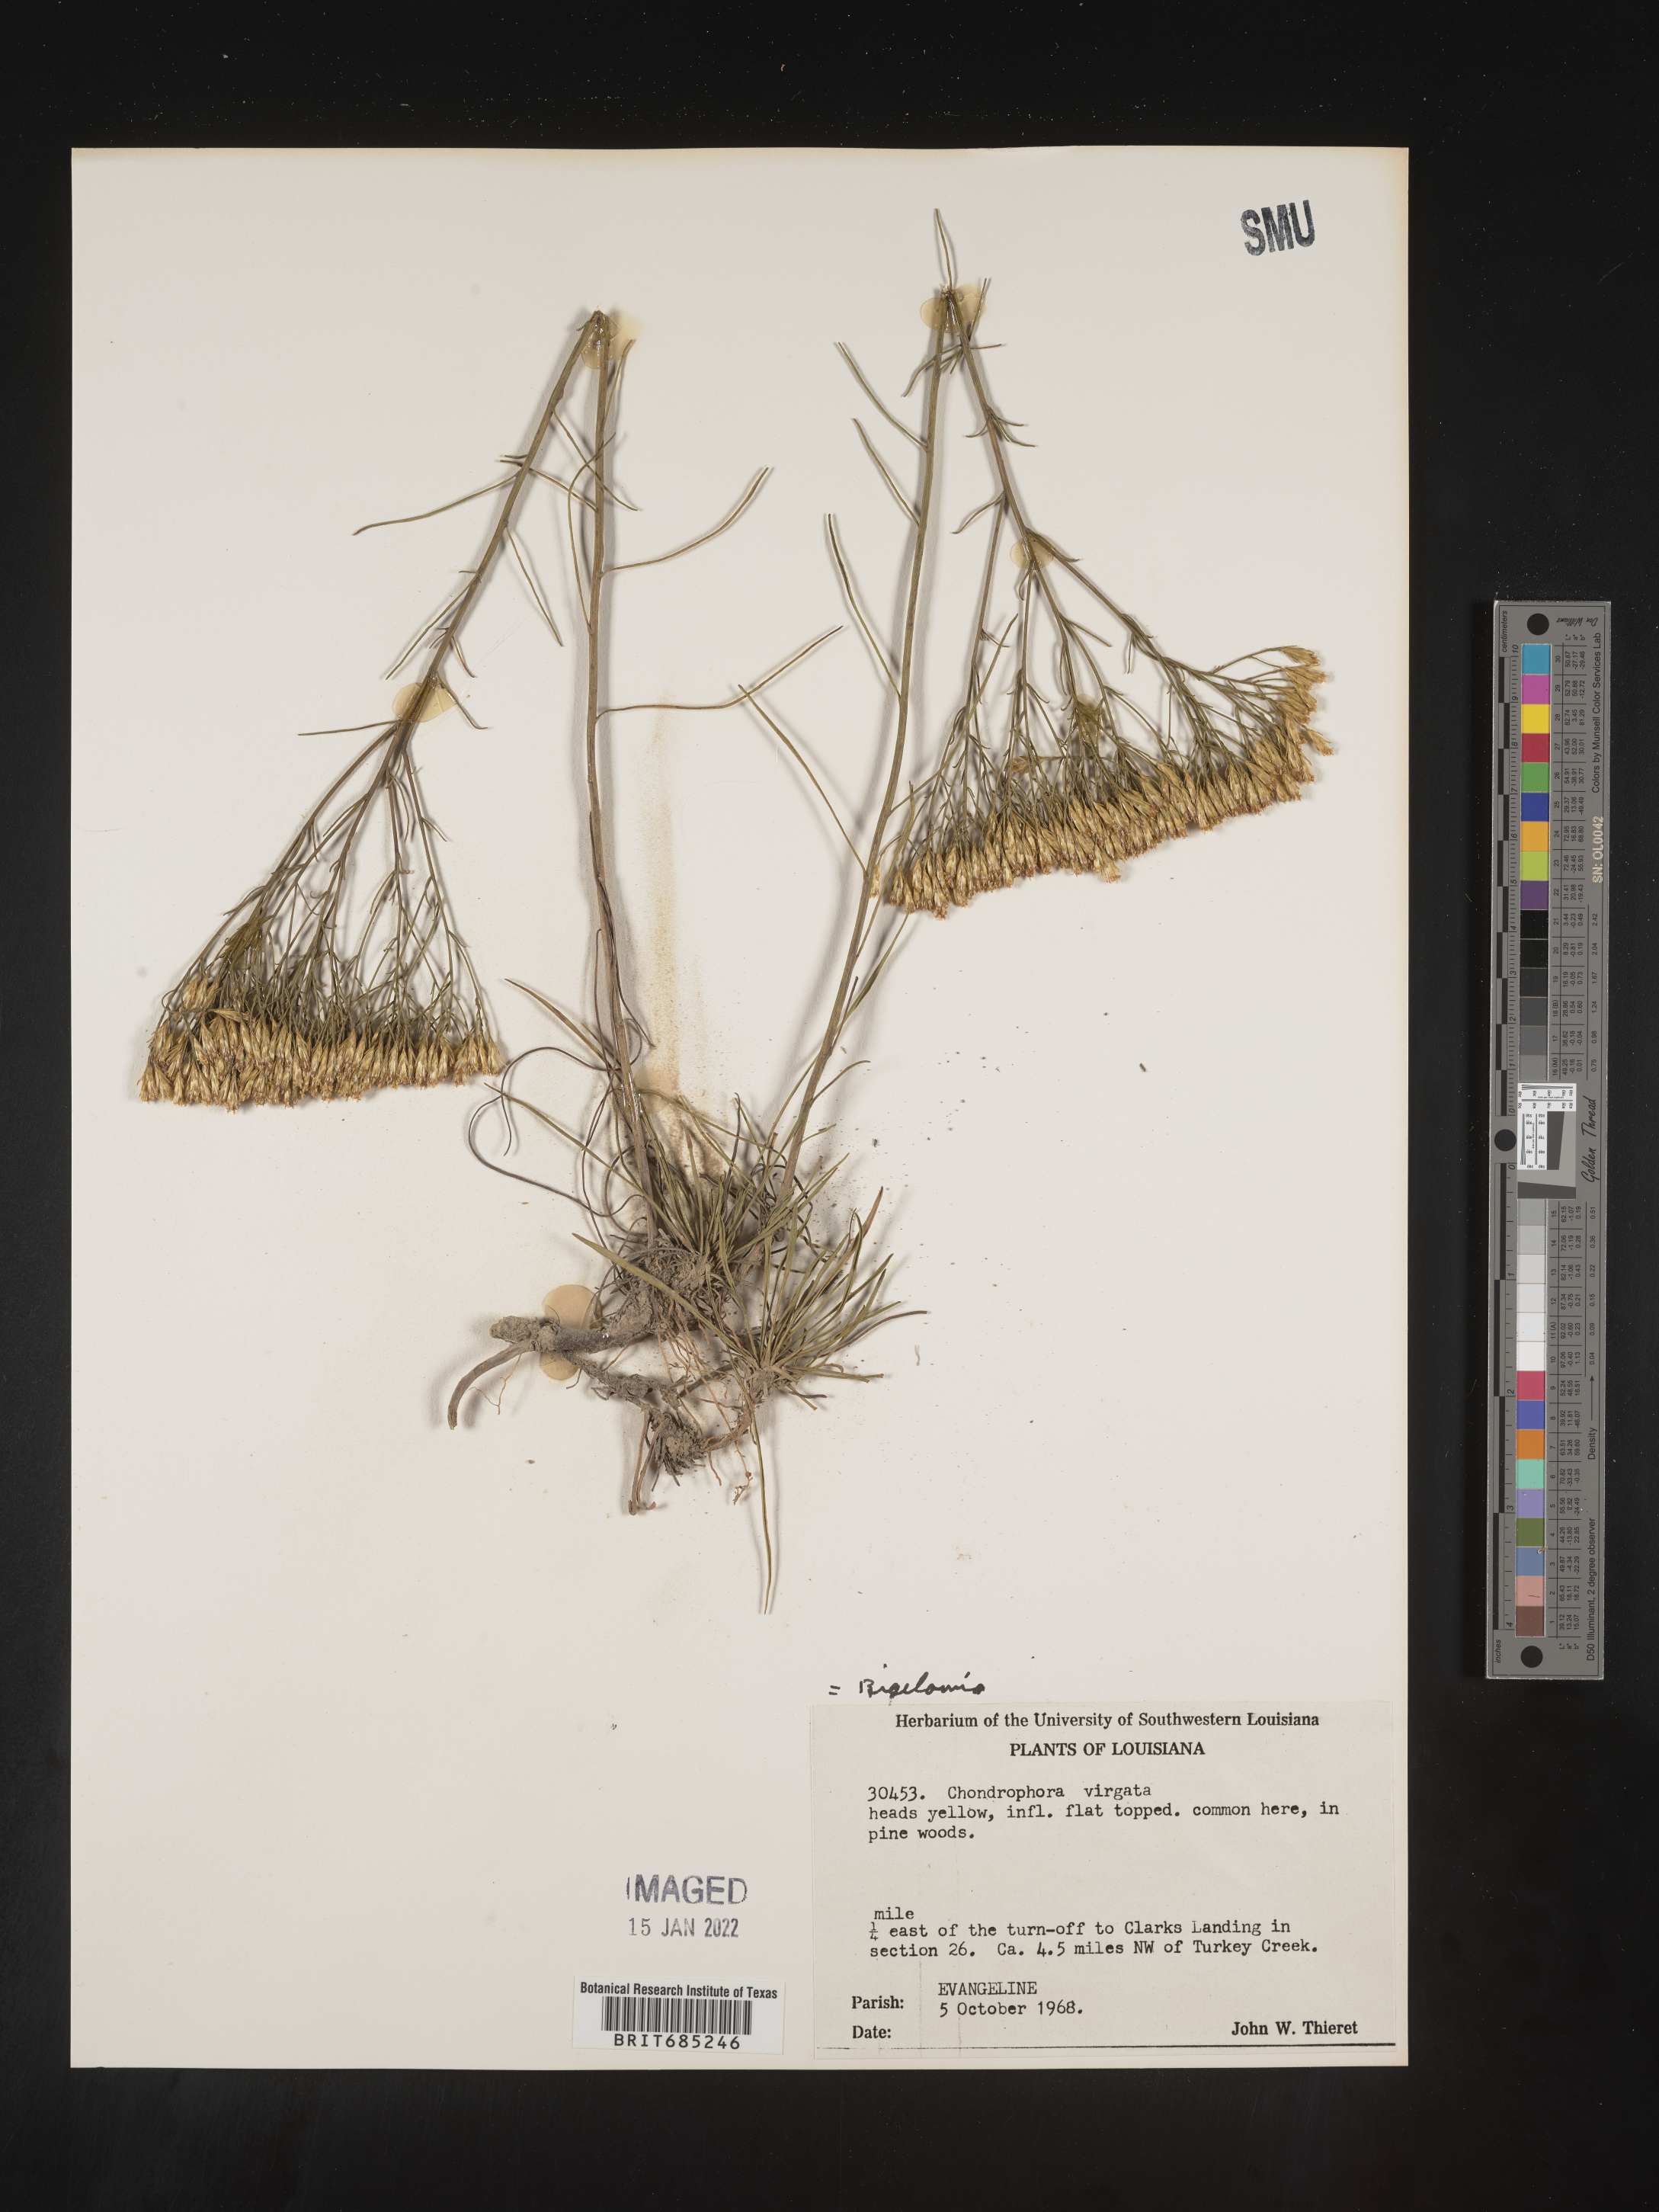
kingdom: Plantae
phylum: Tracheophyta
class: Magnoliopsida
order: Asterales
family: Asteraceae
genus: Bigelowia
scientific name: Bigelowia nuttallii
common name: Nuttall's rayless-goldenrod
